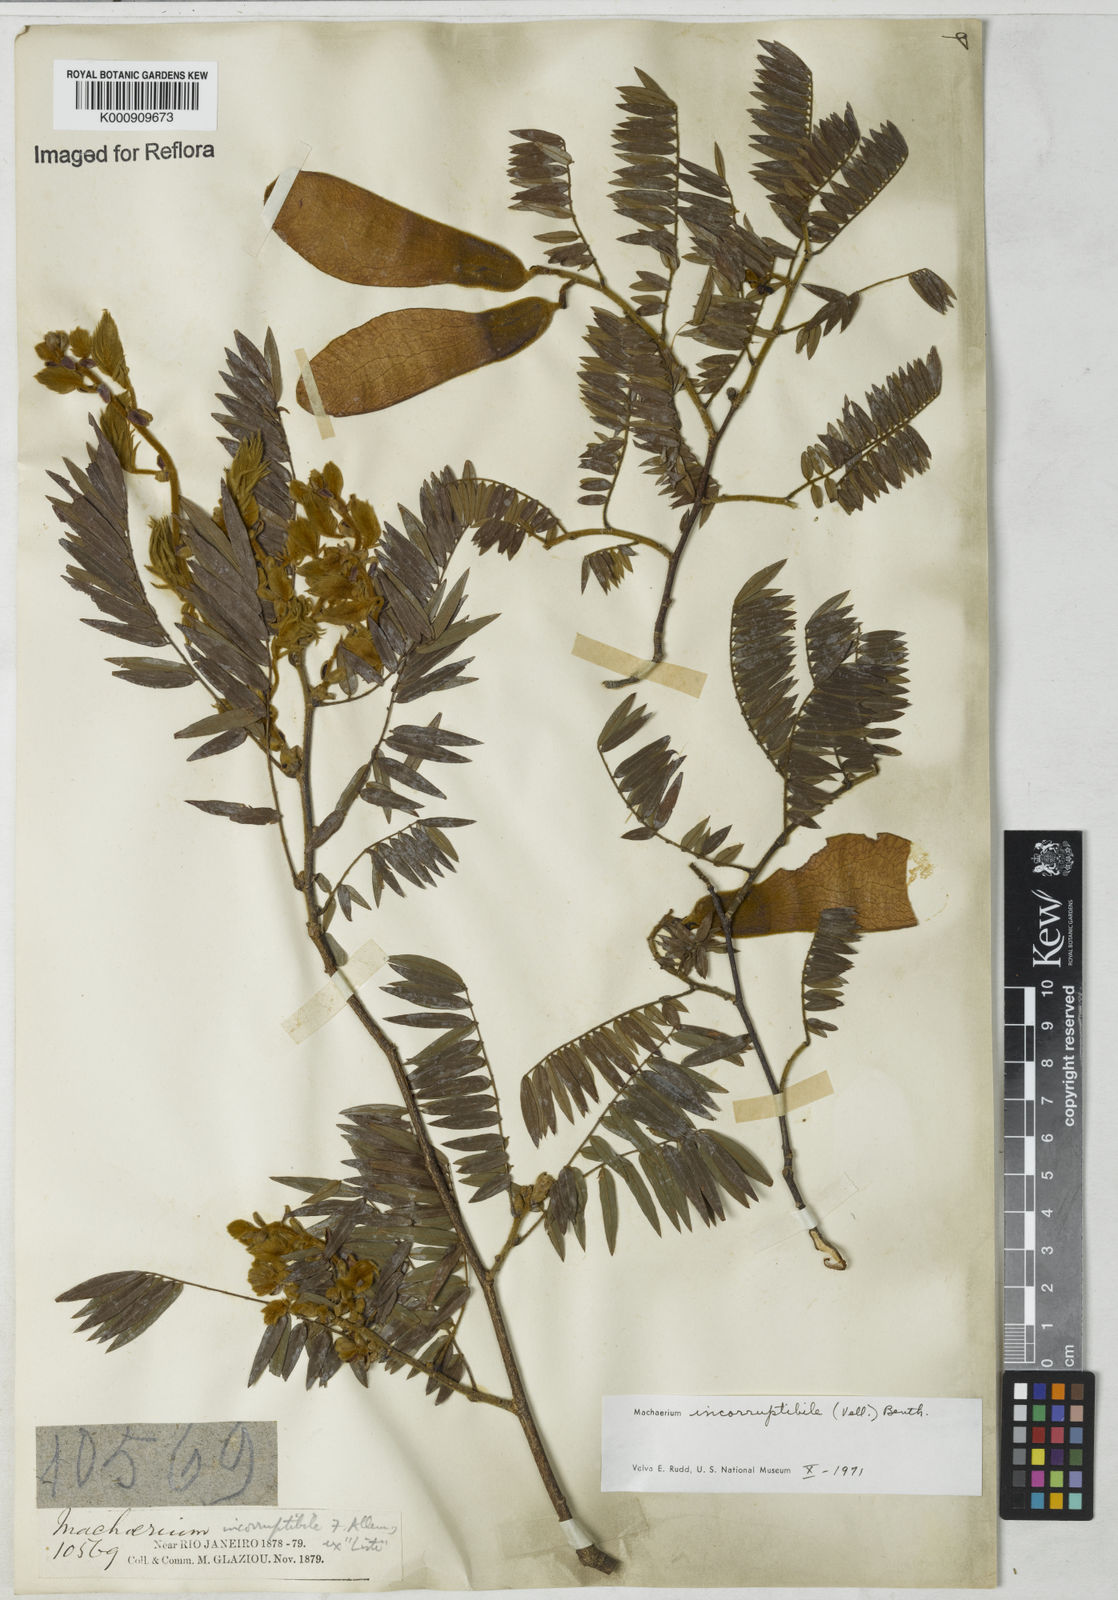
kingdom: Plantae
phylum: Tracheophyta
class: Magnoliopsida
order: Fabales
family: Fabaceae
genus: Machaerium
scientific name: Machaerium incorruptibile
